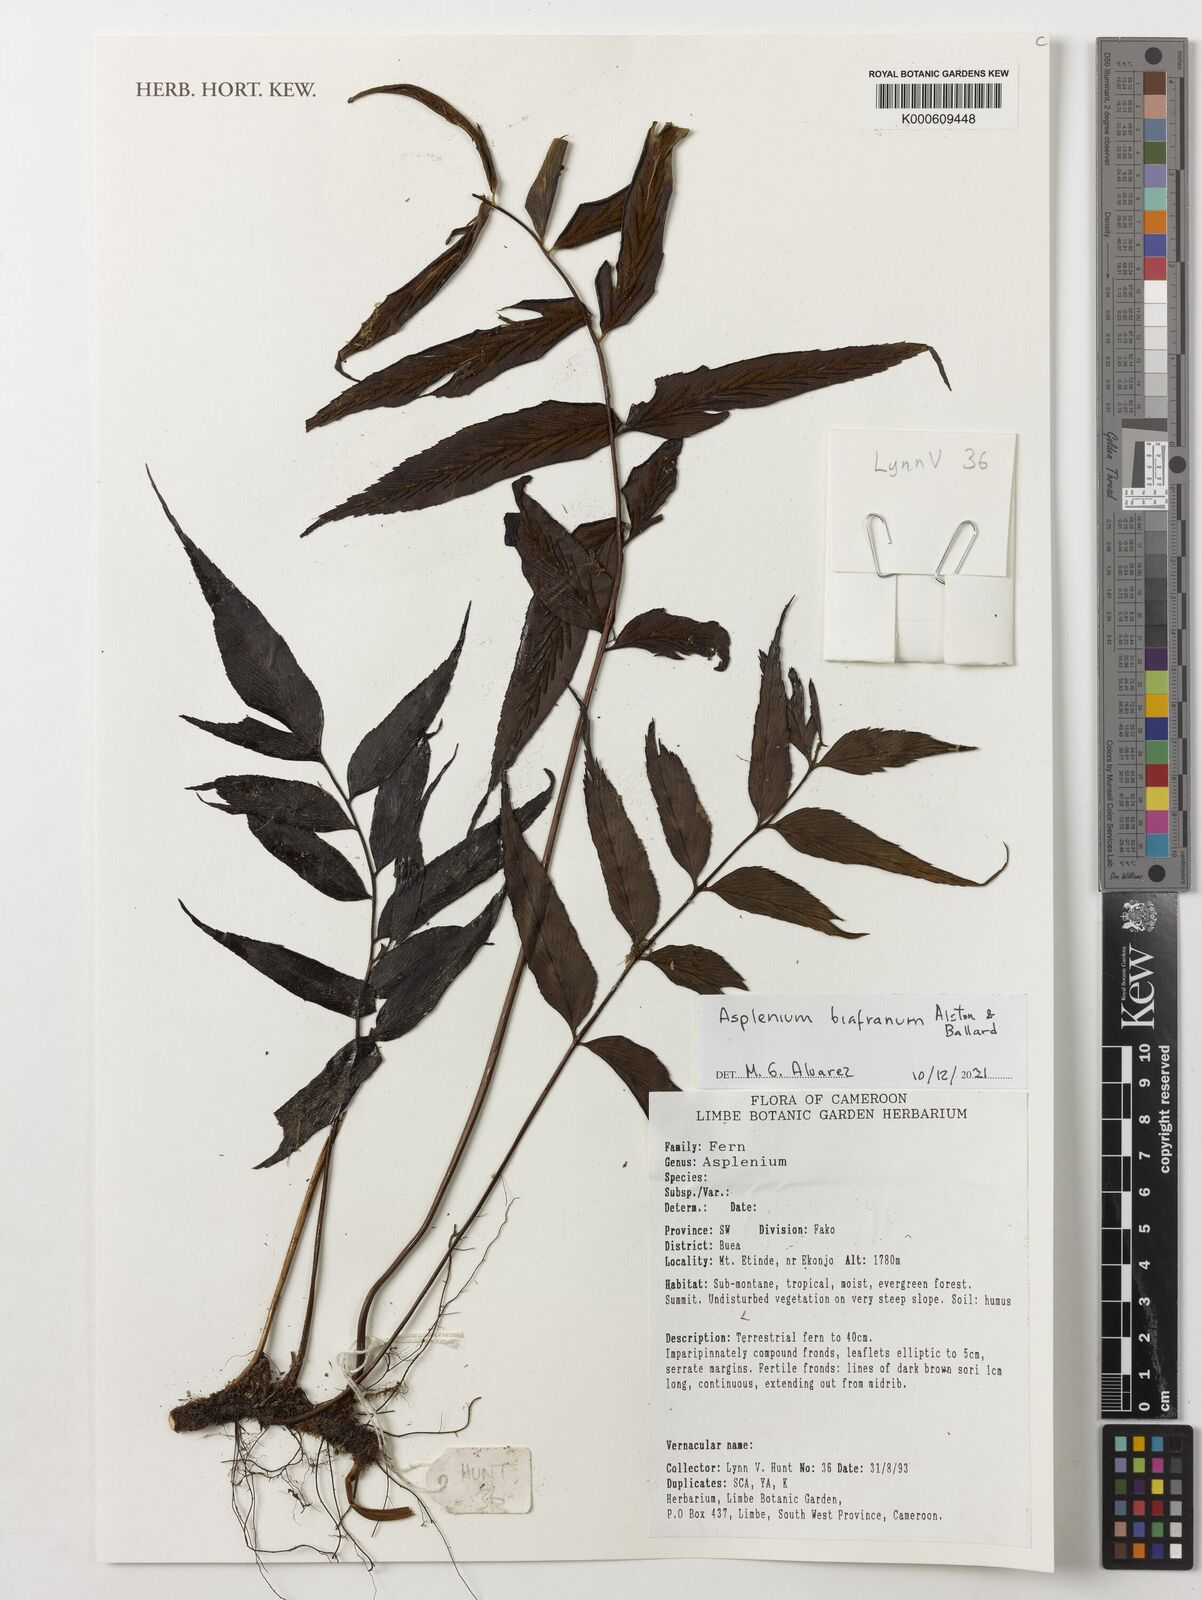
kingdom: Plantae
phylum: Tracheophyta
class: Polypodiopsida
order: Polypodiales
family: Aspleniaceae
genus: Asplenium
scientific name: Asplenium biafranum
